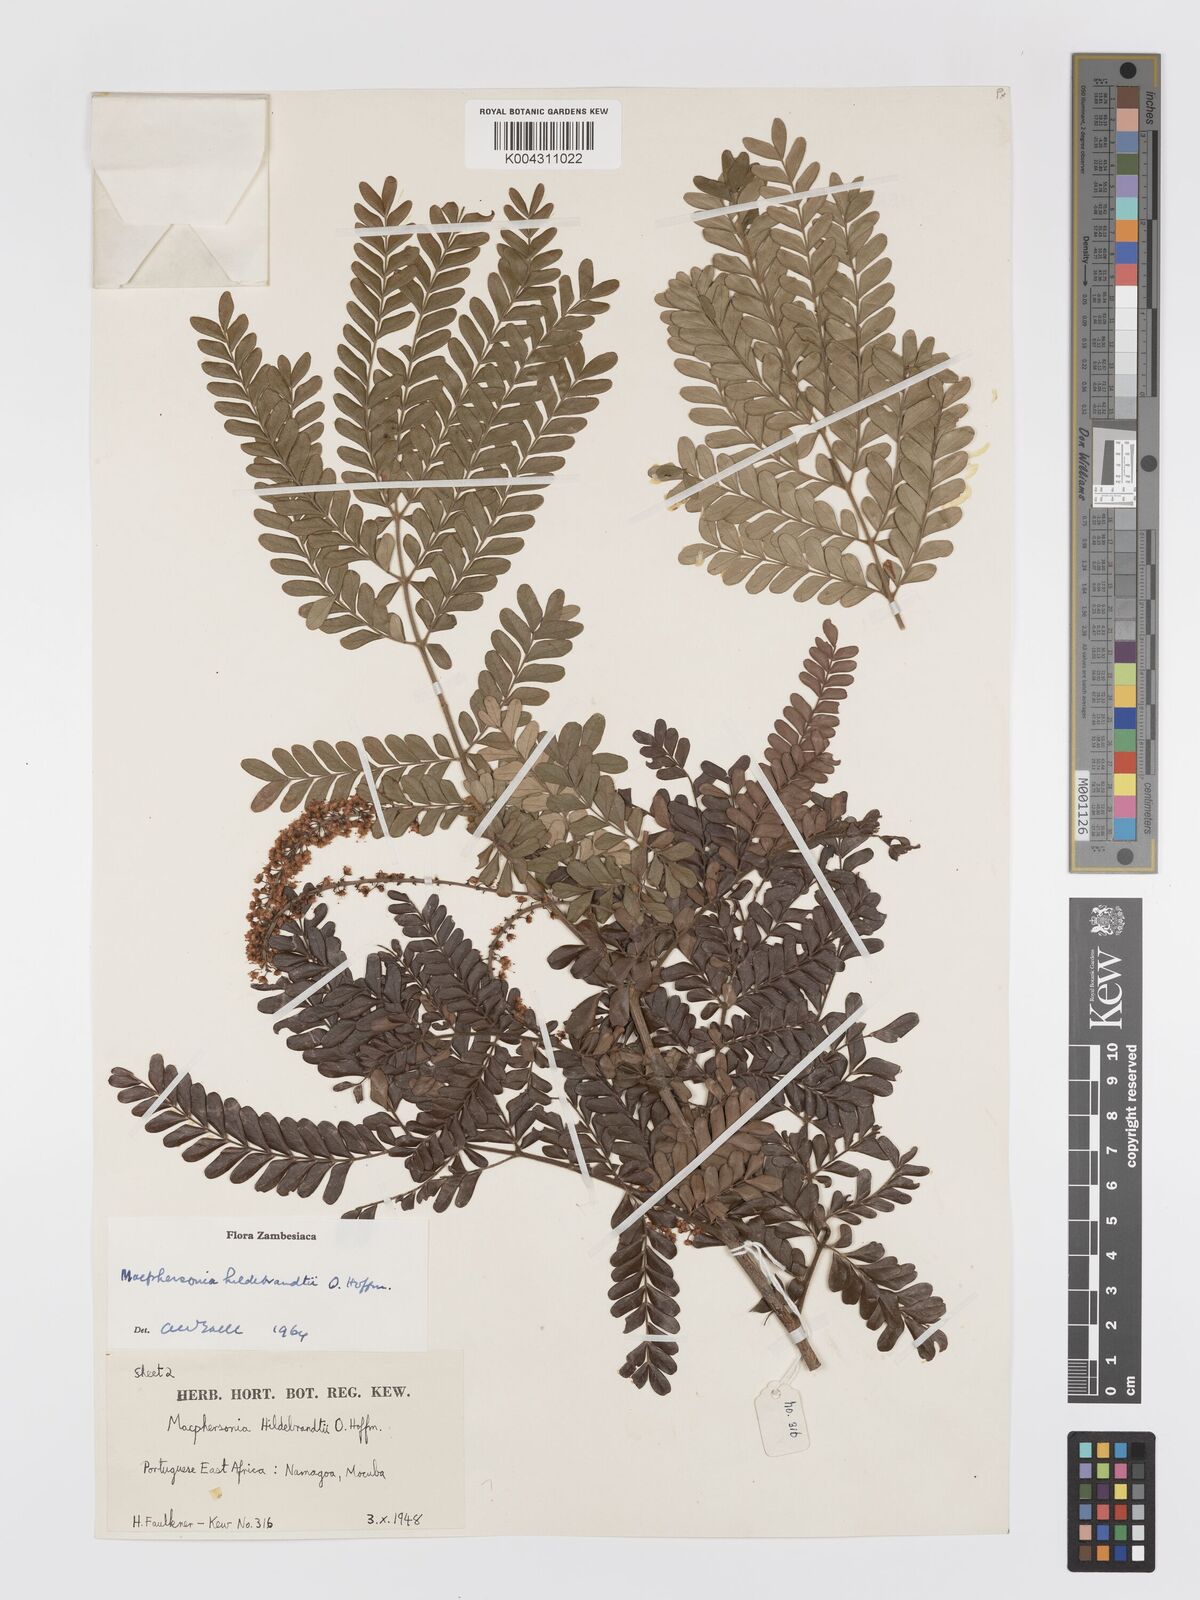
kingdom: Plantae
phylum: Tracheophyta
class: Magnoliopsida
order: Sapindales
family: Sapindaceae
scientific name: Sapindaceae
